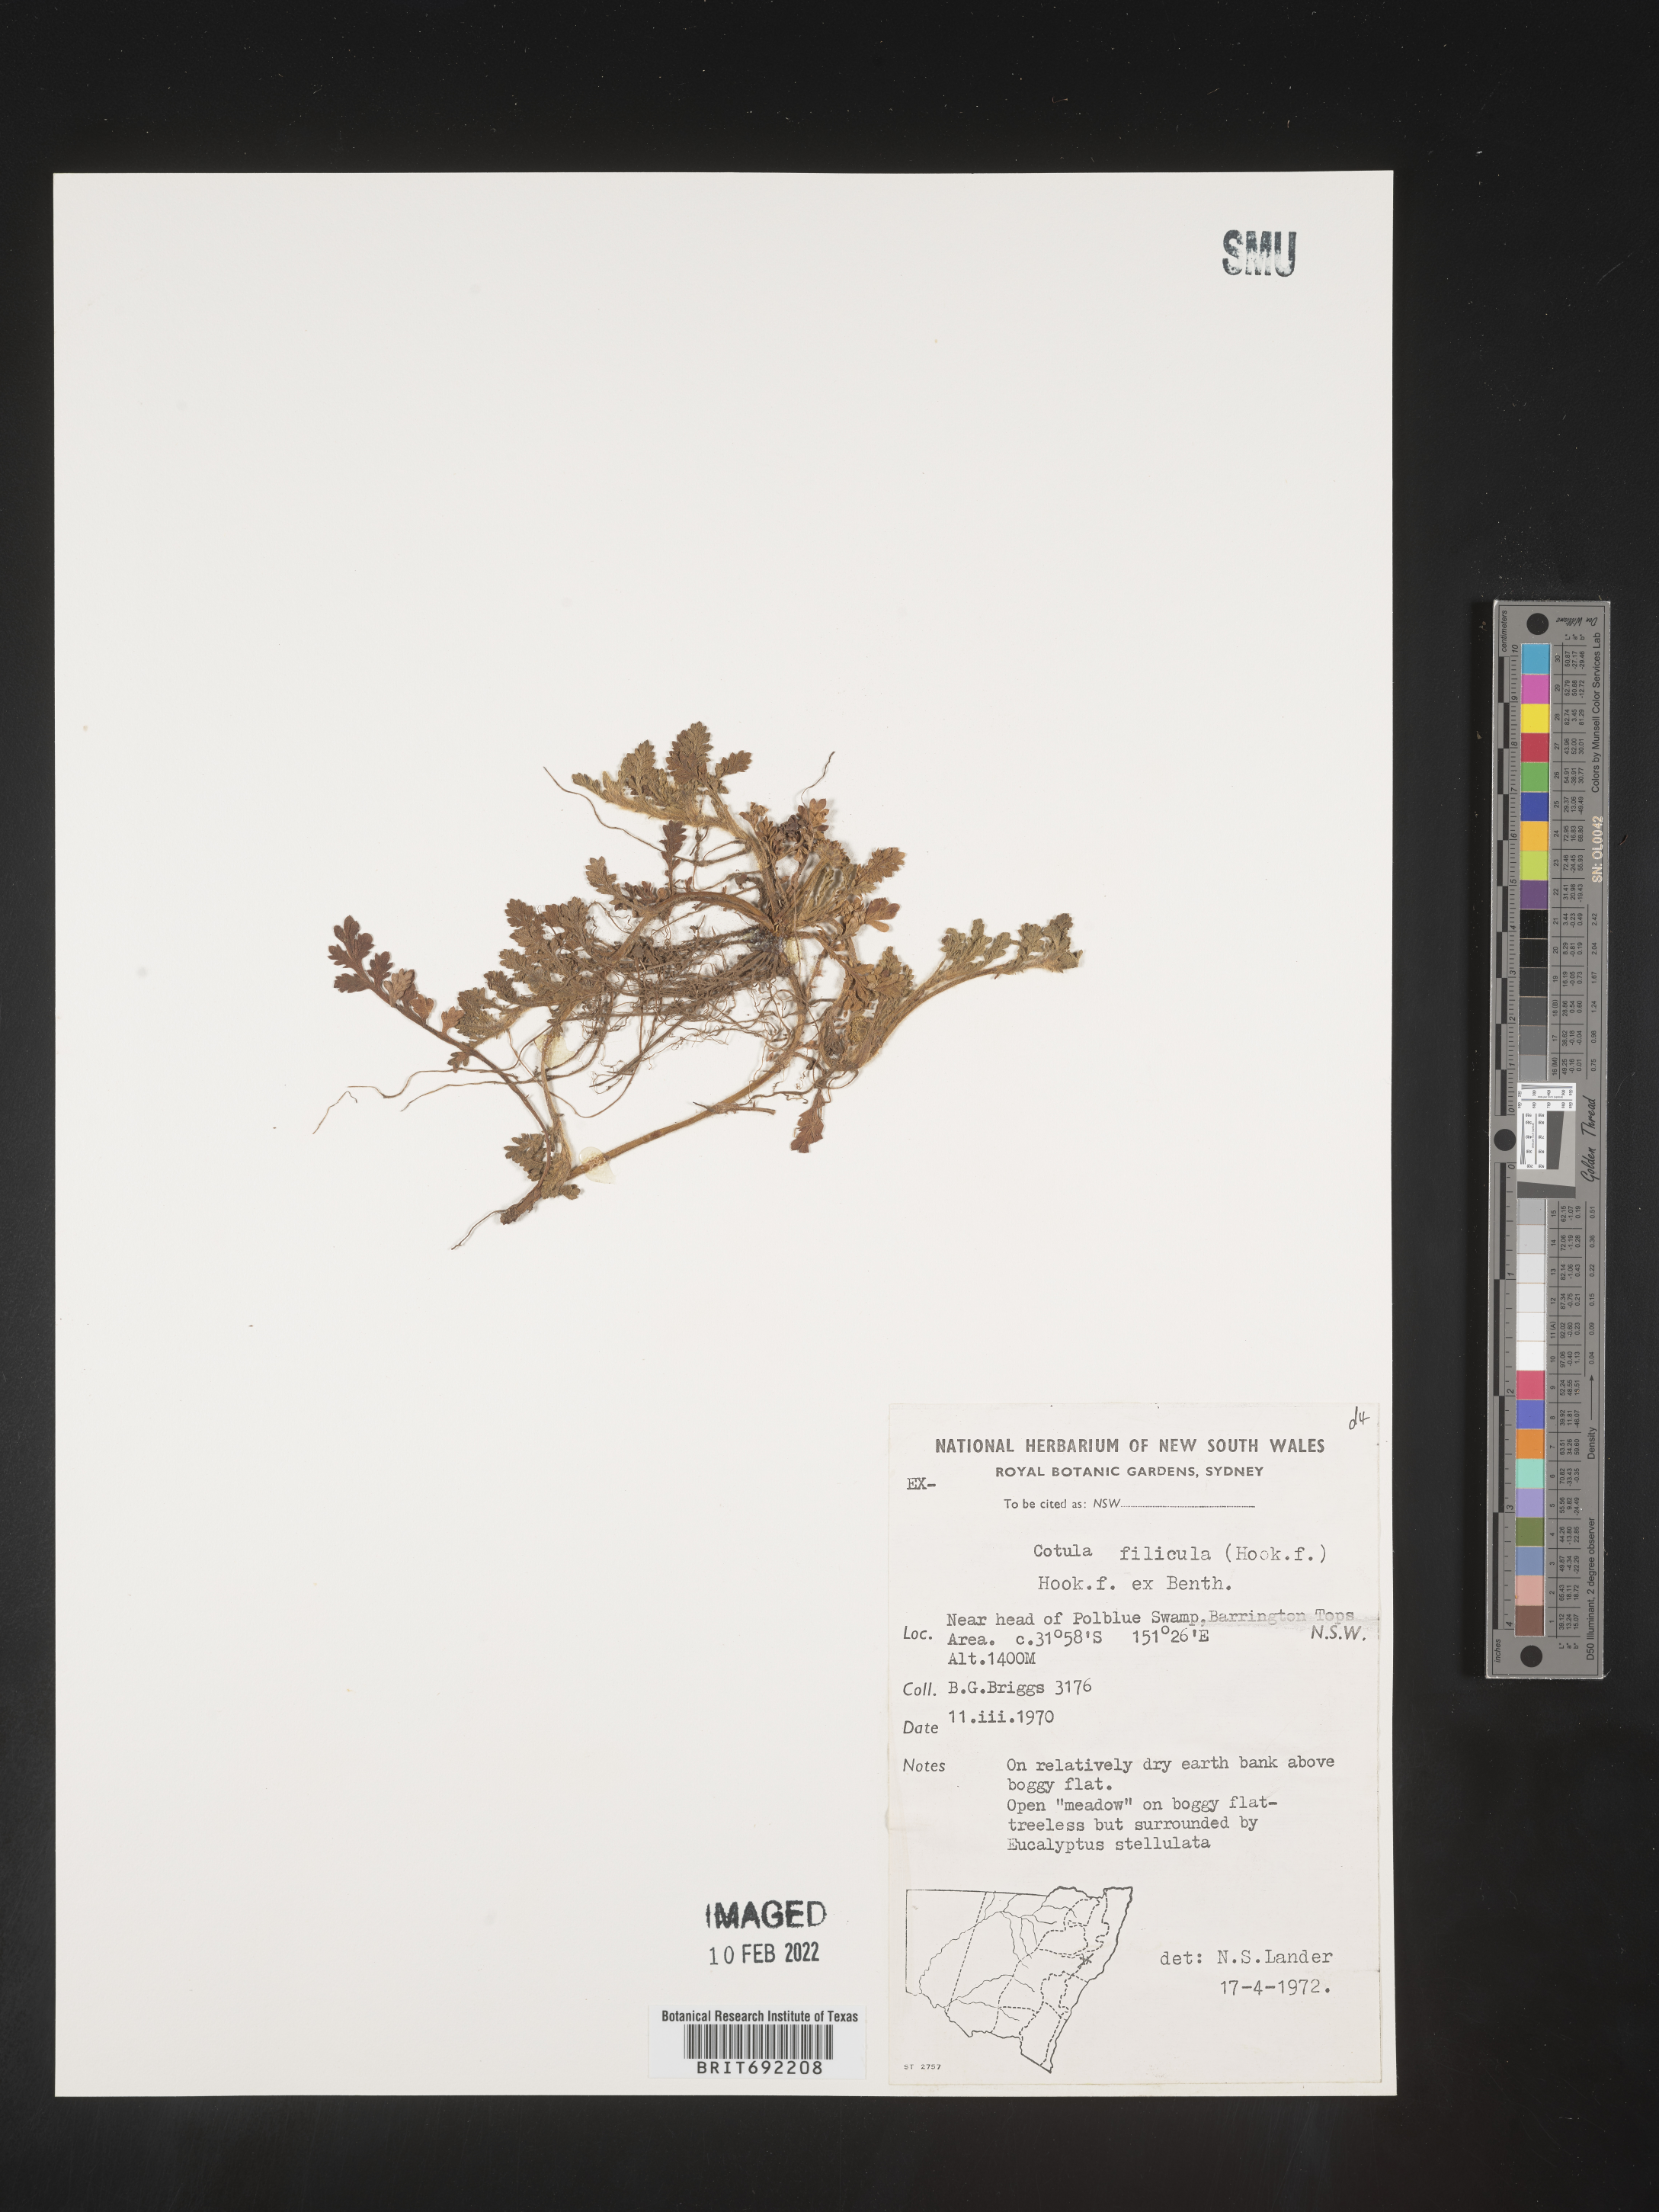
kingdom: Plantae
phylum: Tracheophyta
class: Magnoliopsida
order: Asterales
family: Asteraceae
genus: Cotula
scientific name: Cotula
